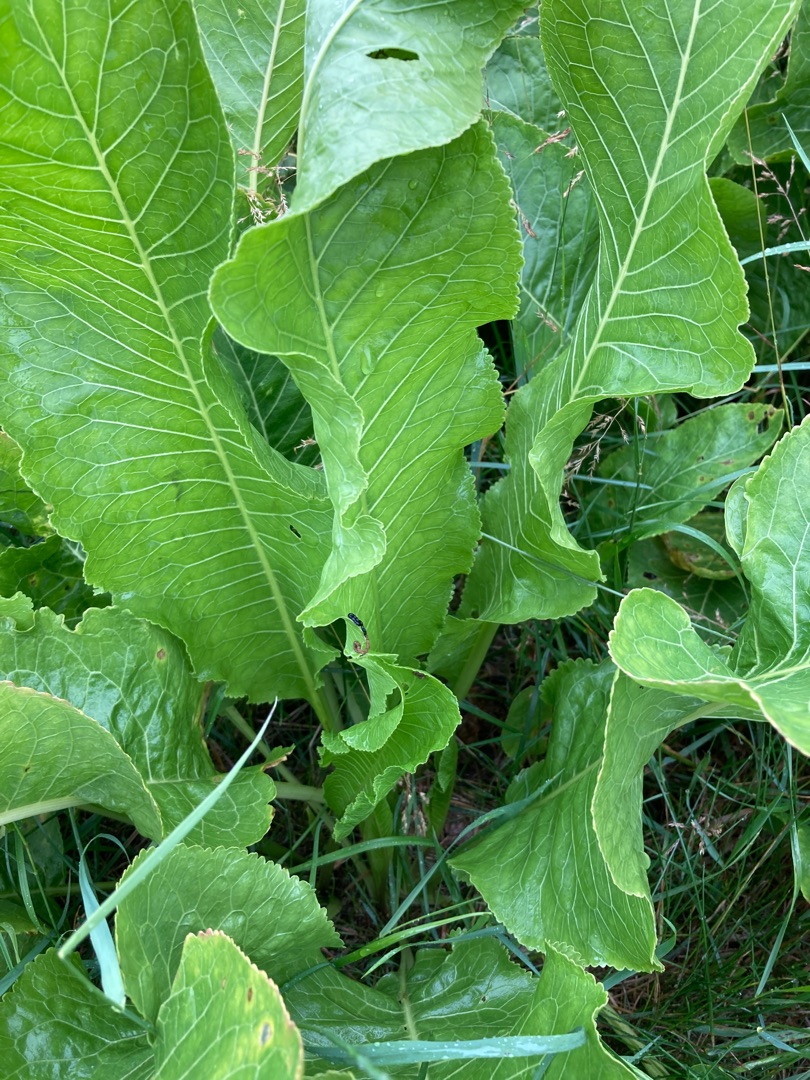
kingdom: Plantae
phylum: Tracheophyta
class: Magnoliopsida
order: Brassicales
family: Brassicaceae
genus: Armoracia
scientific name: Armoracia rusticana
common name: Peberrod
